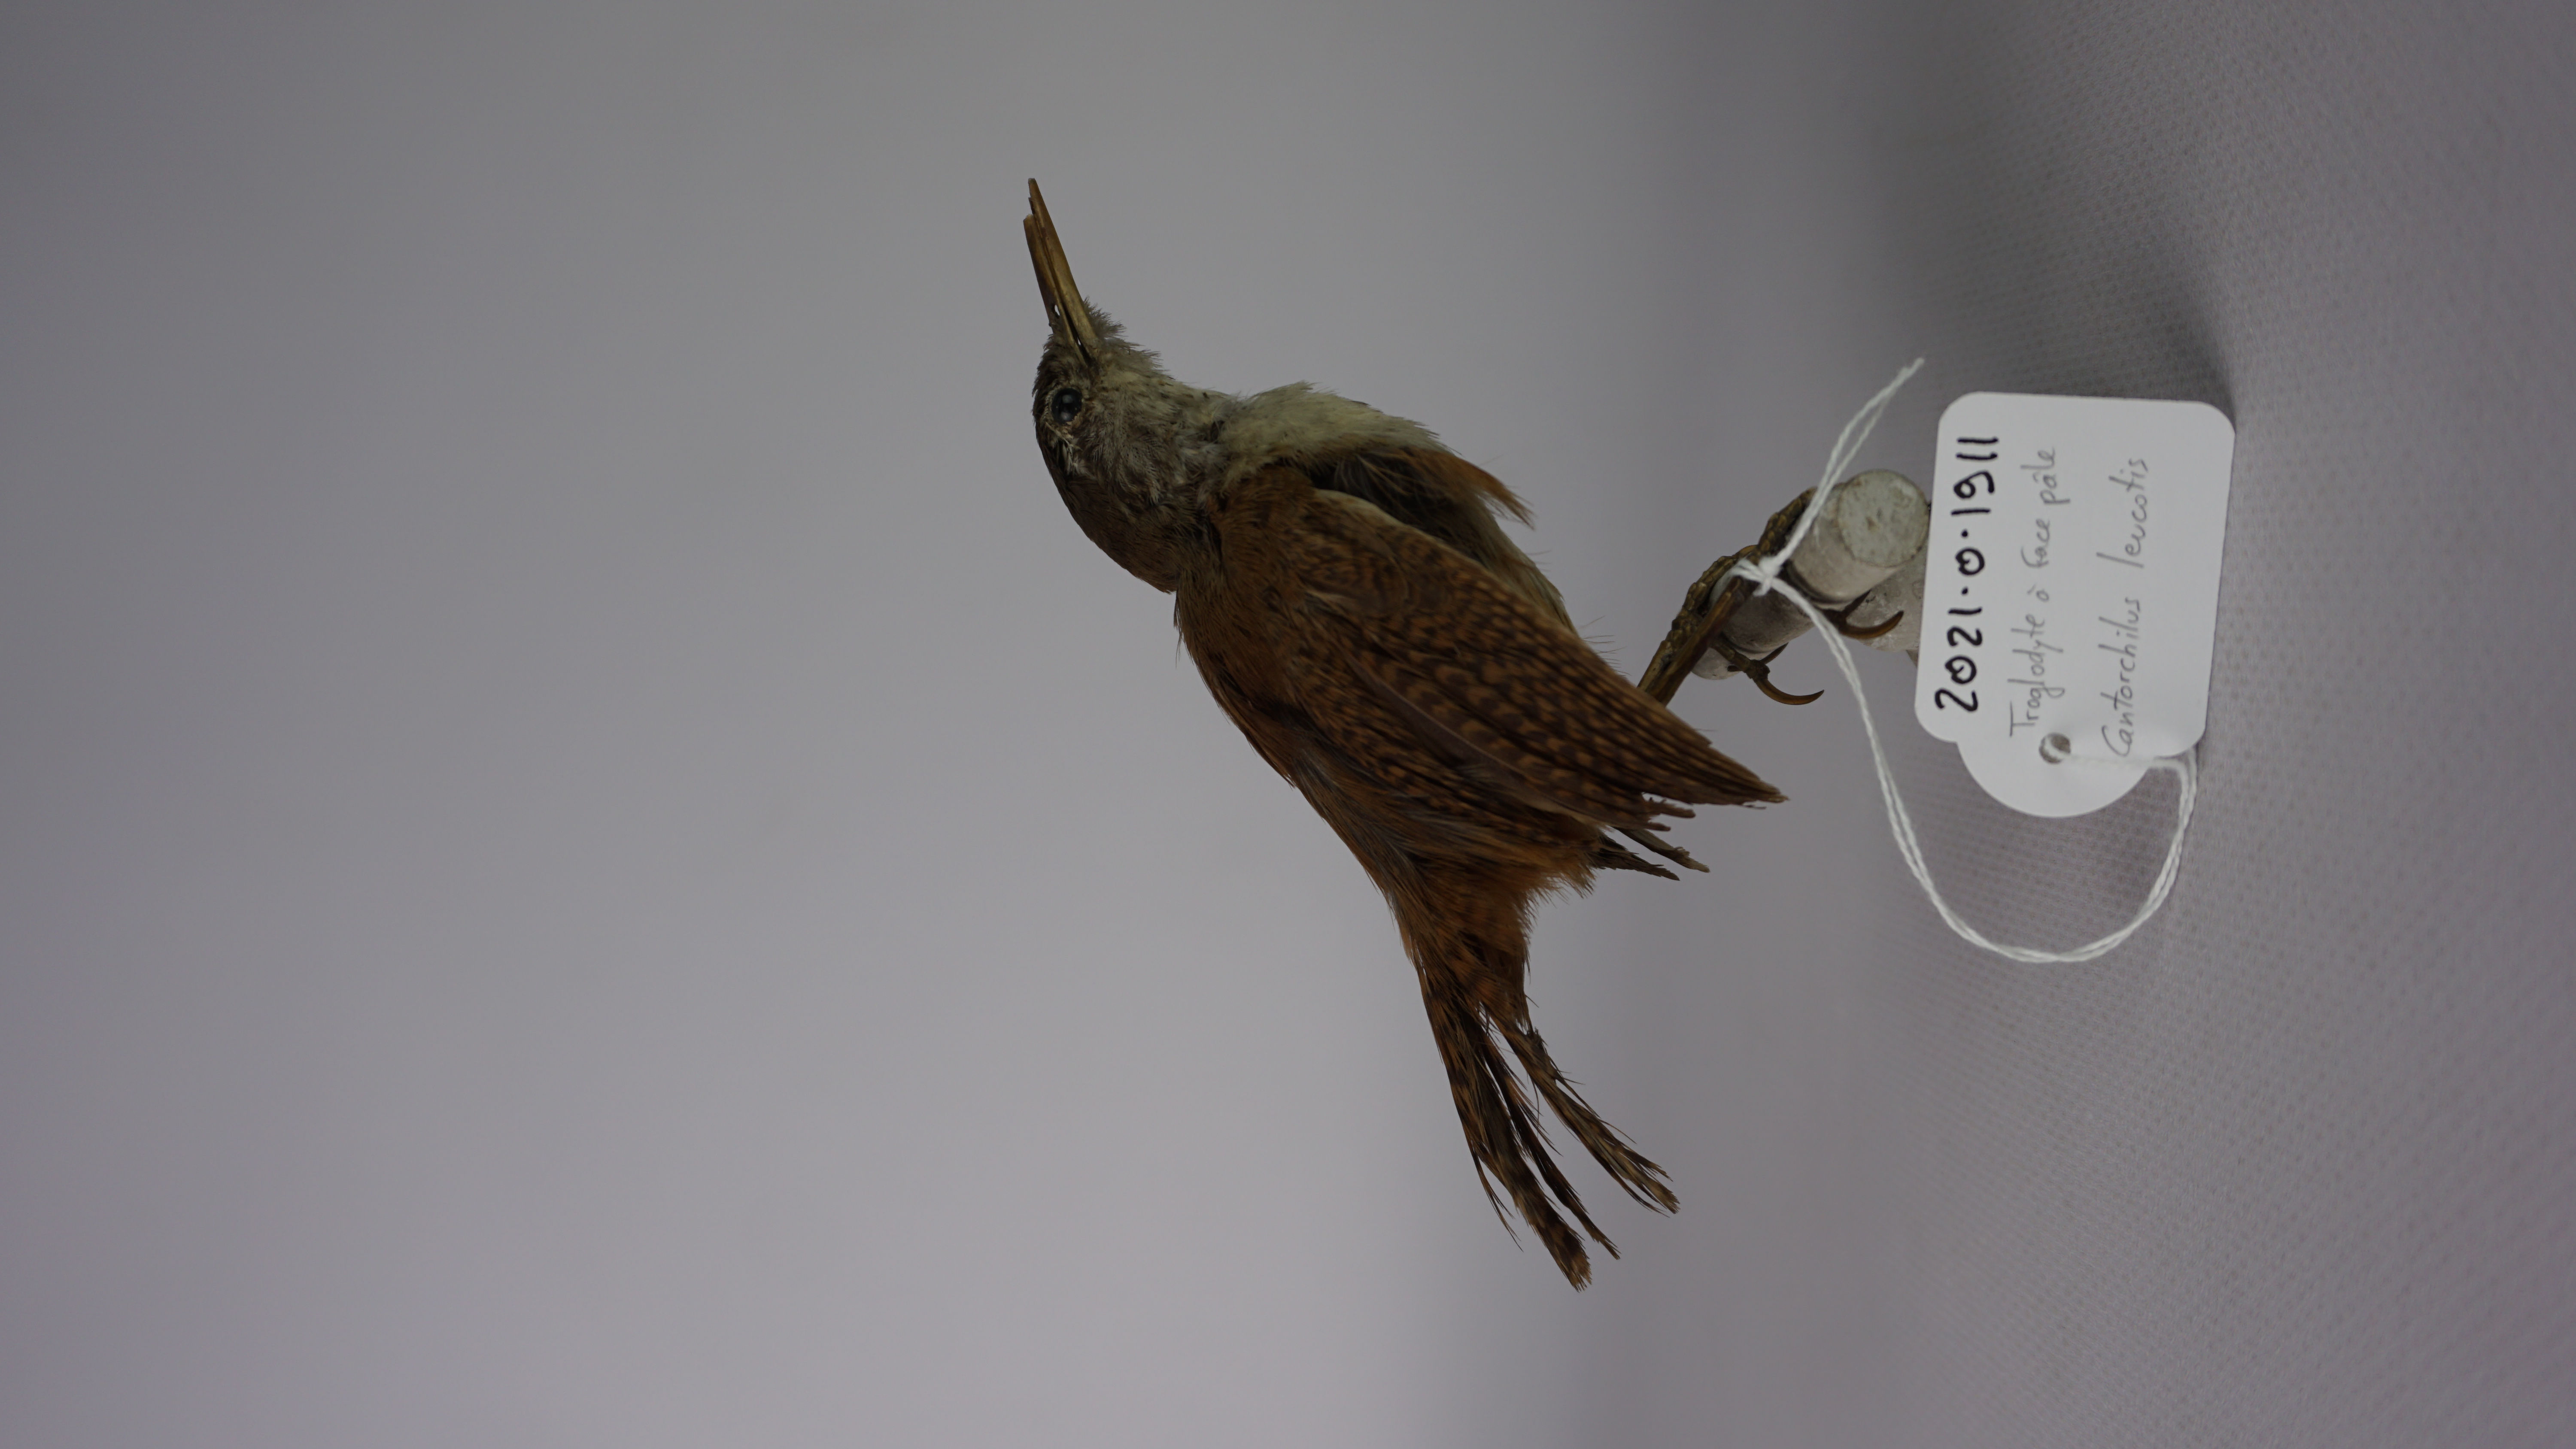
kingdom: Animalia
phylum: Chordata
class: Aves
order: Passeriformes
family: Troglodytidae
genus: Cantorchilus
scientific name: Cantorchilus leucotis
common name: Buff-breasted wren
